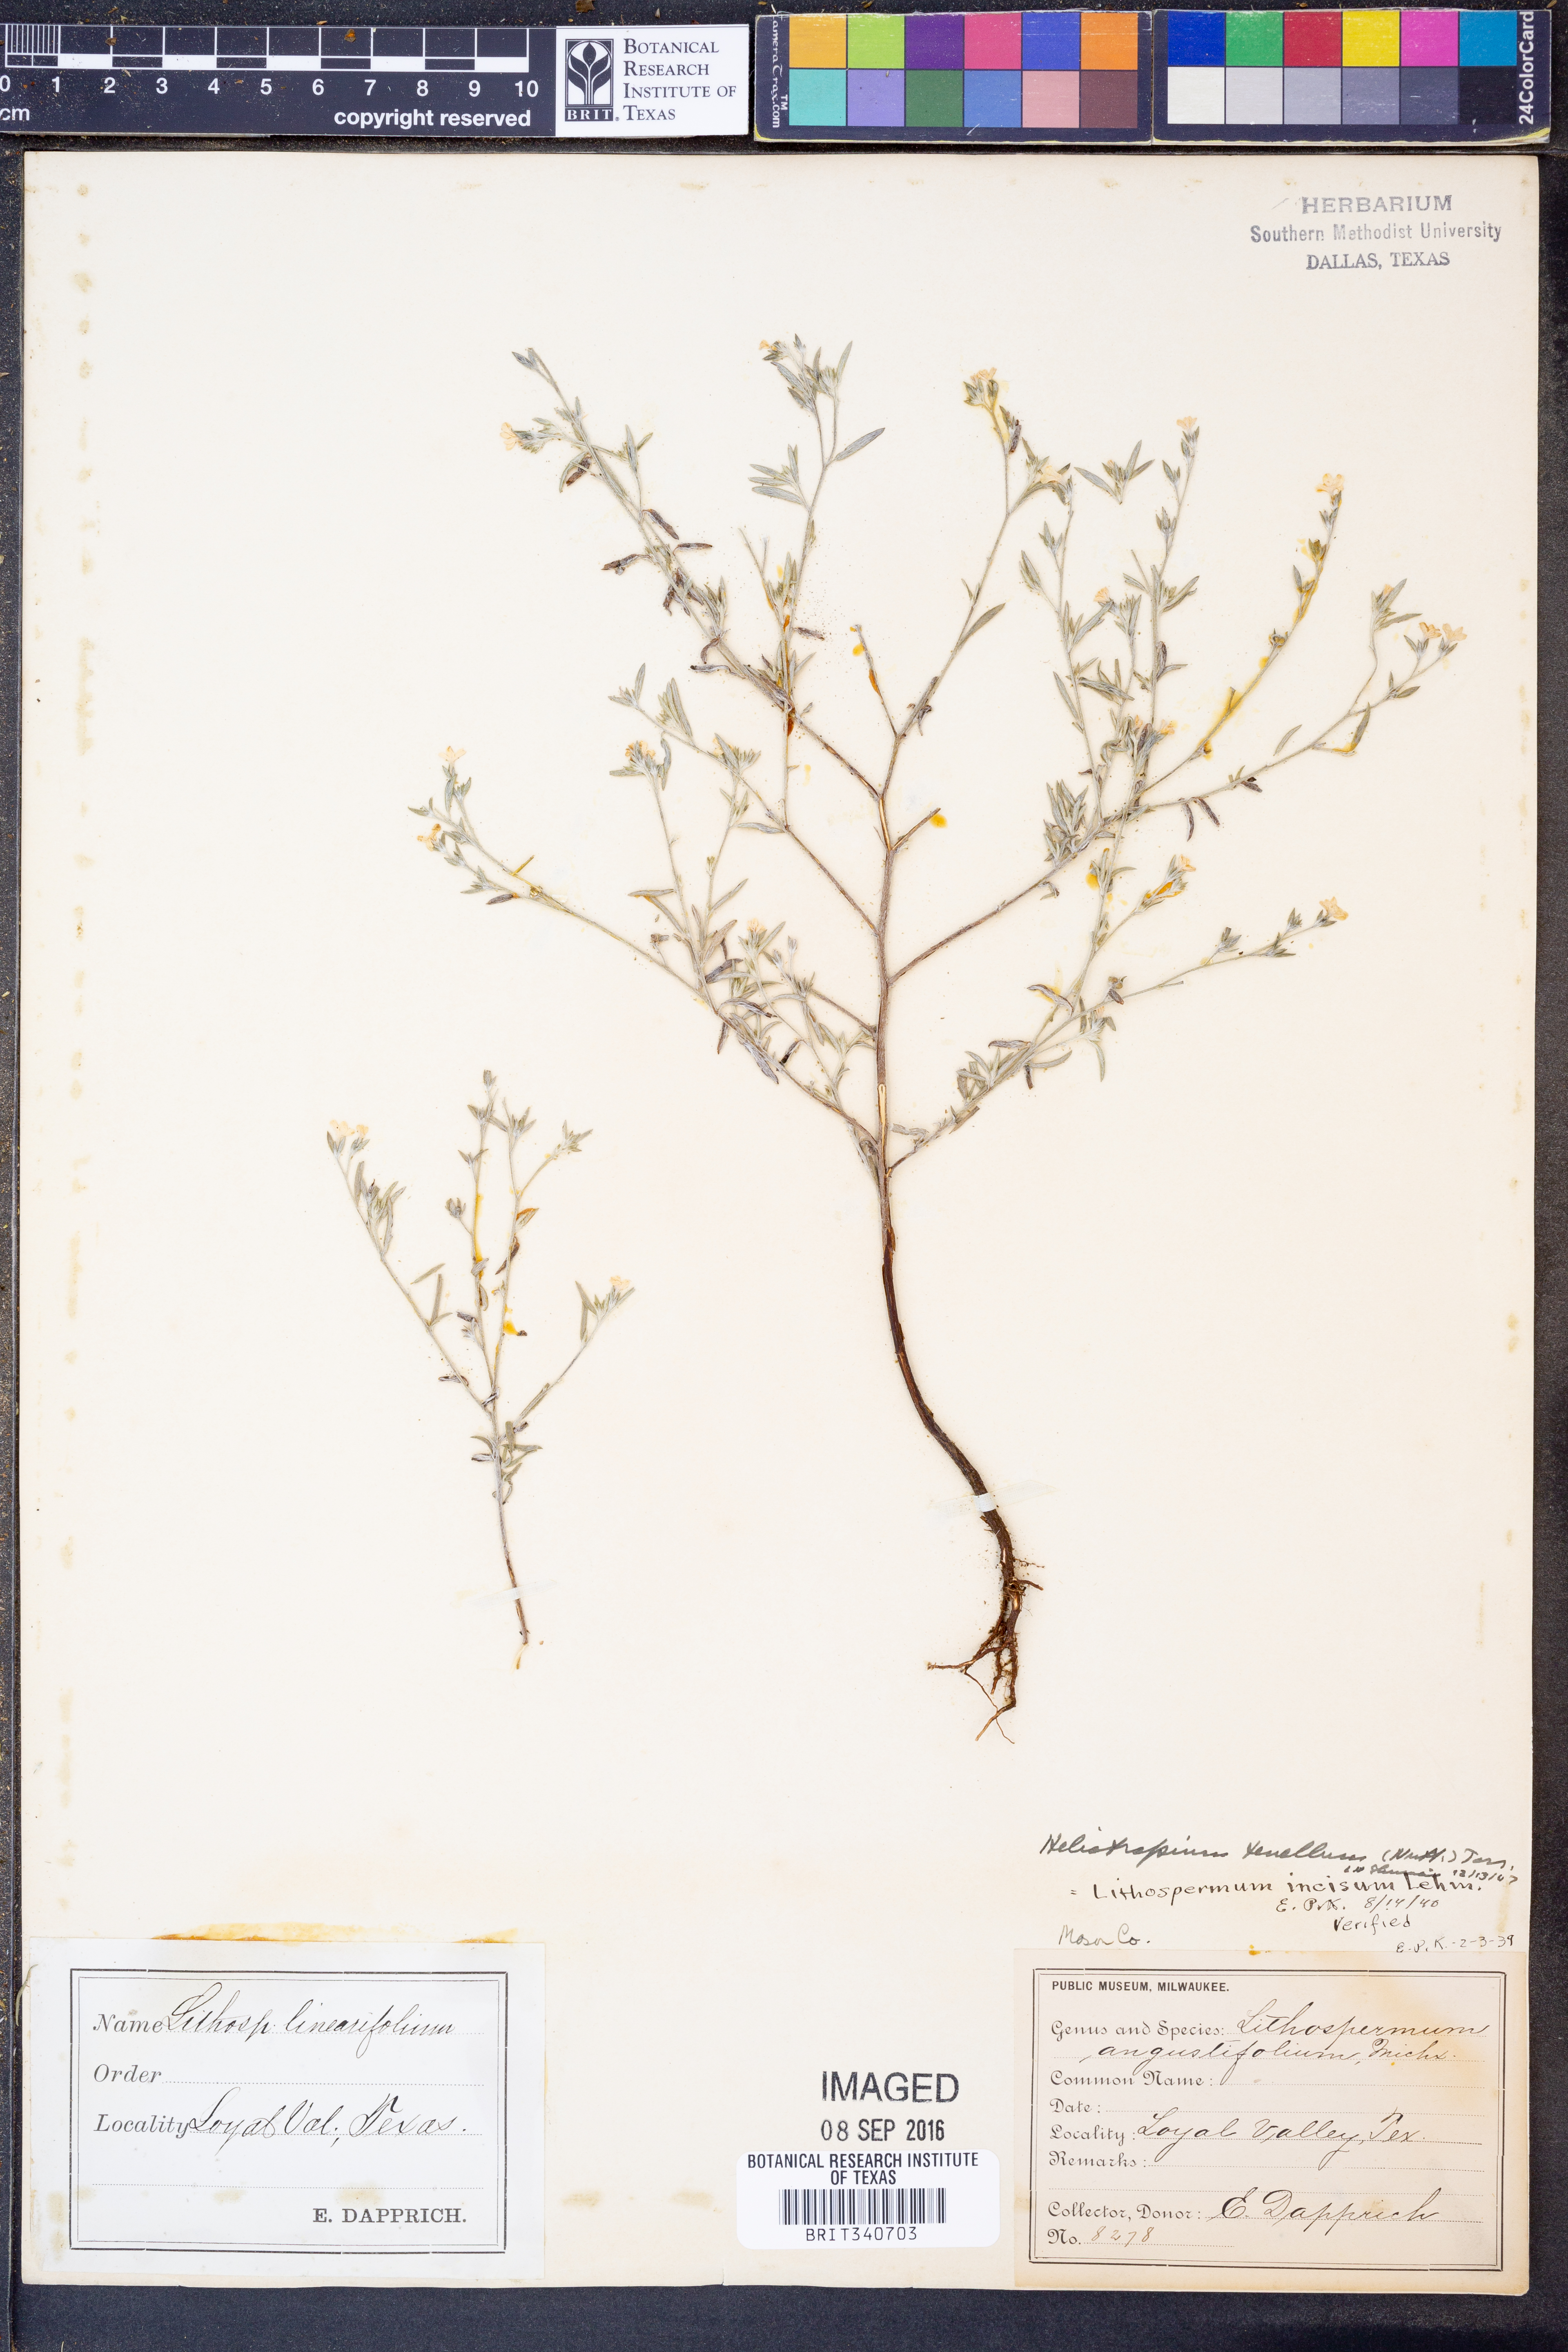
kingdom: Plantae
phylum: Tracheophyta
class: Magnoliopsida
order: Boraginales
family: Heliotropiaceae
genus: Euploca
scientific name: Euploca tenella
